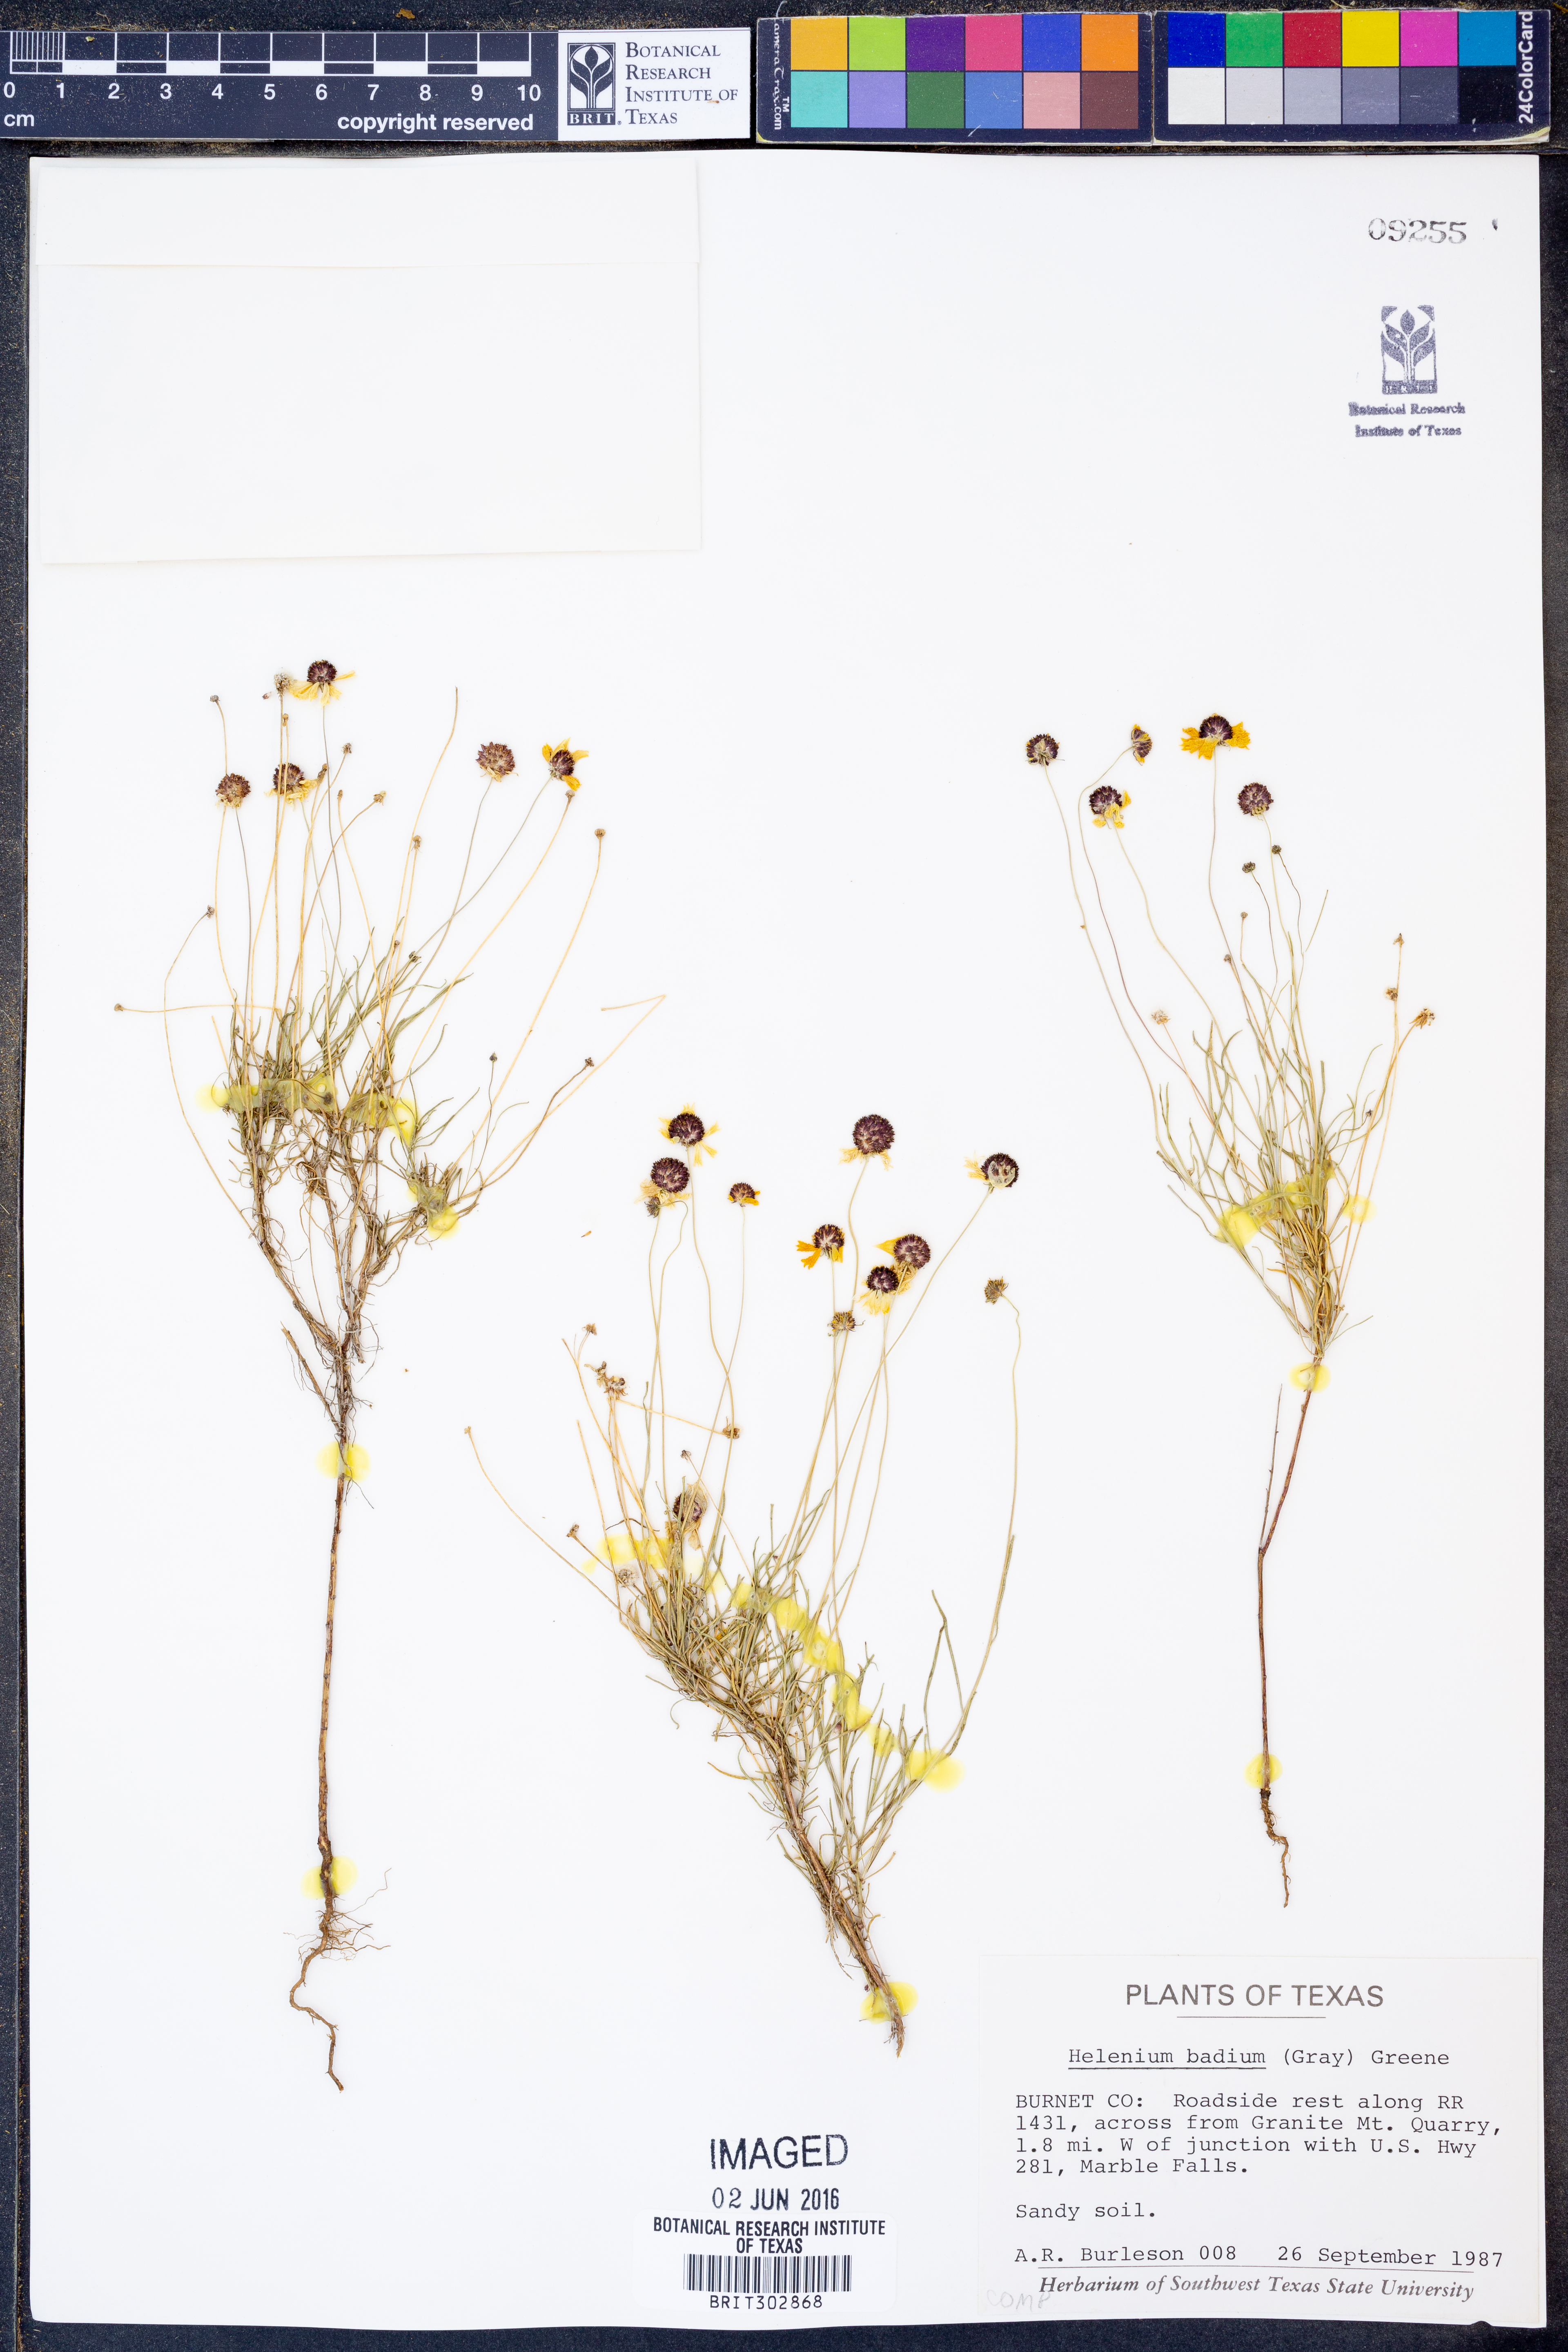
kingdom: Plantae
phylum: Tracheophyta
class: Magnoliopsida
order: Asterales
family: Asteraceae
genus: Helenium
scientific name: Helenium amarum
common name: Bitter sneezeweed
